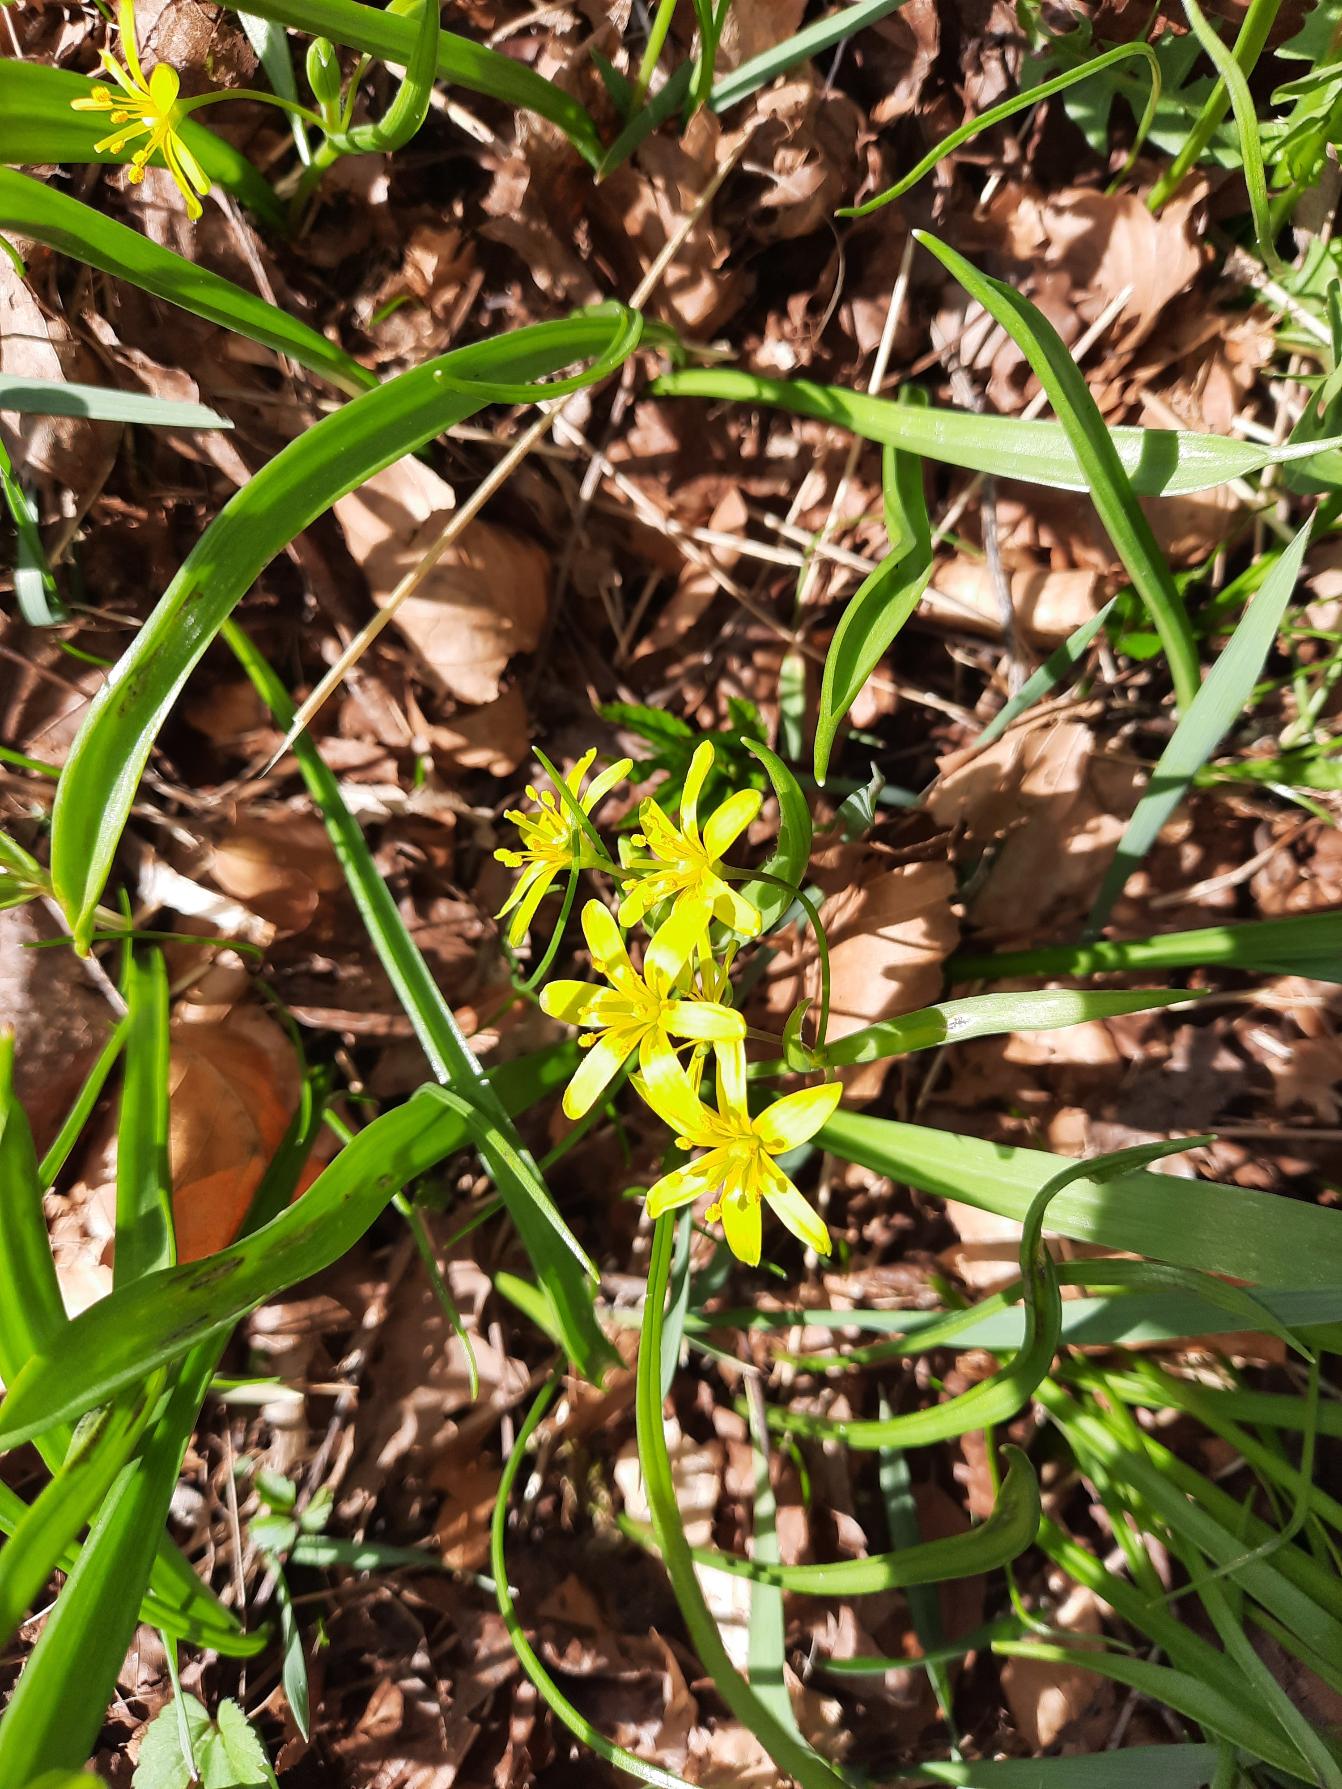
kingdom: Plantae
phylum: Tracheophyta
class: Liliopsida
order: Liliales
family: Liliaceae
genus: Gagea
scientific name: Gagea lutea
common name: Almindelig guldstjerne
